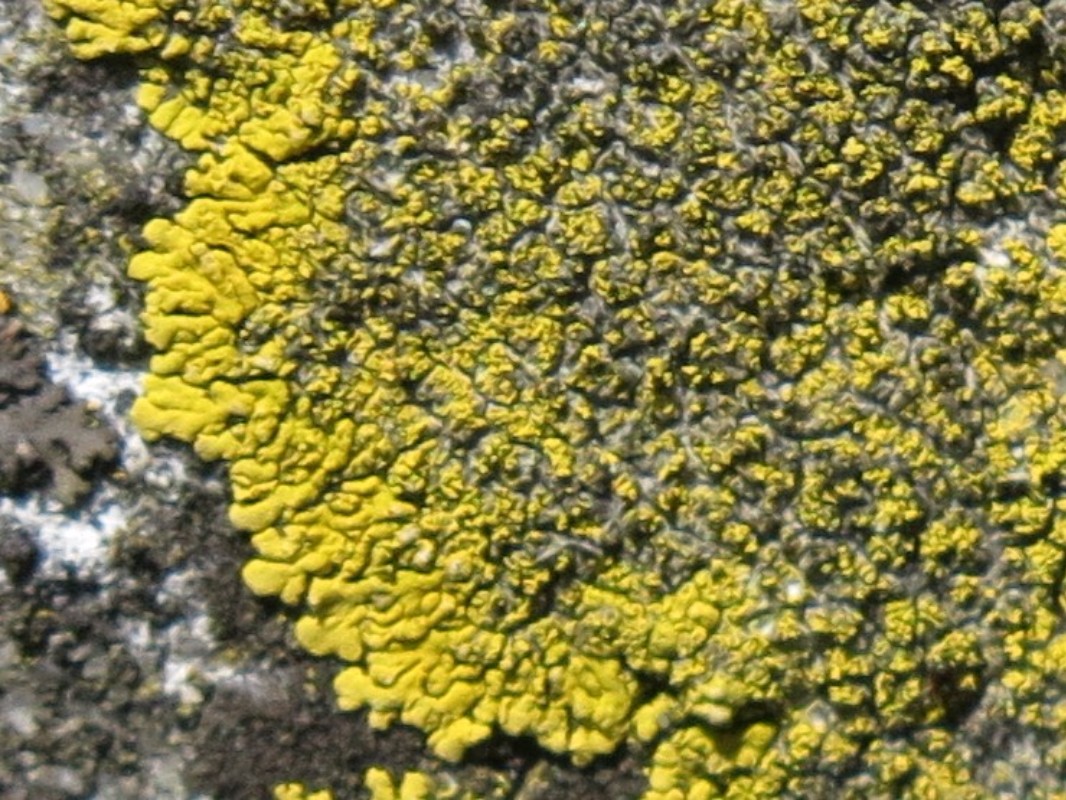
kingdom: Fungi
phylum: Ascomycota
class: Candelariomycetes
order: Candelariales
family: Candelariaceae
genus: Candelariella
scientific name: Candelariella medians
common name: roset-æggeblommelav
